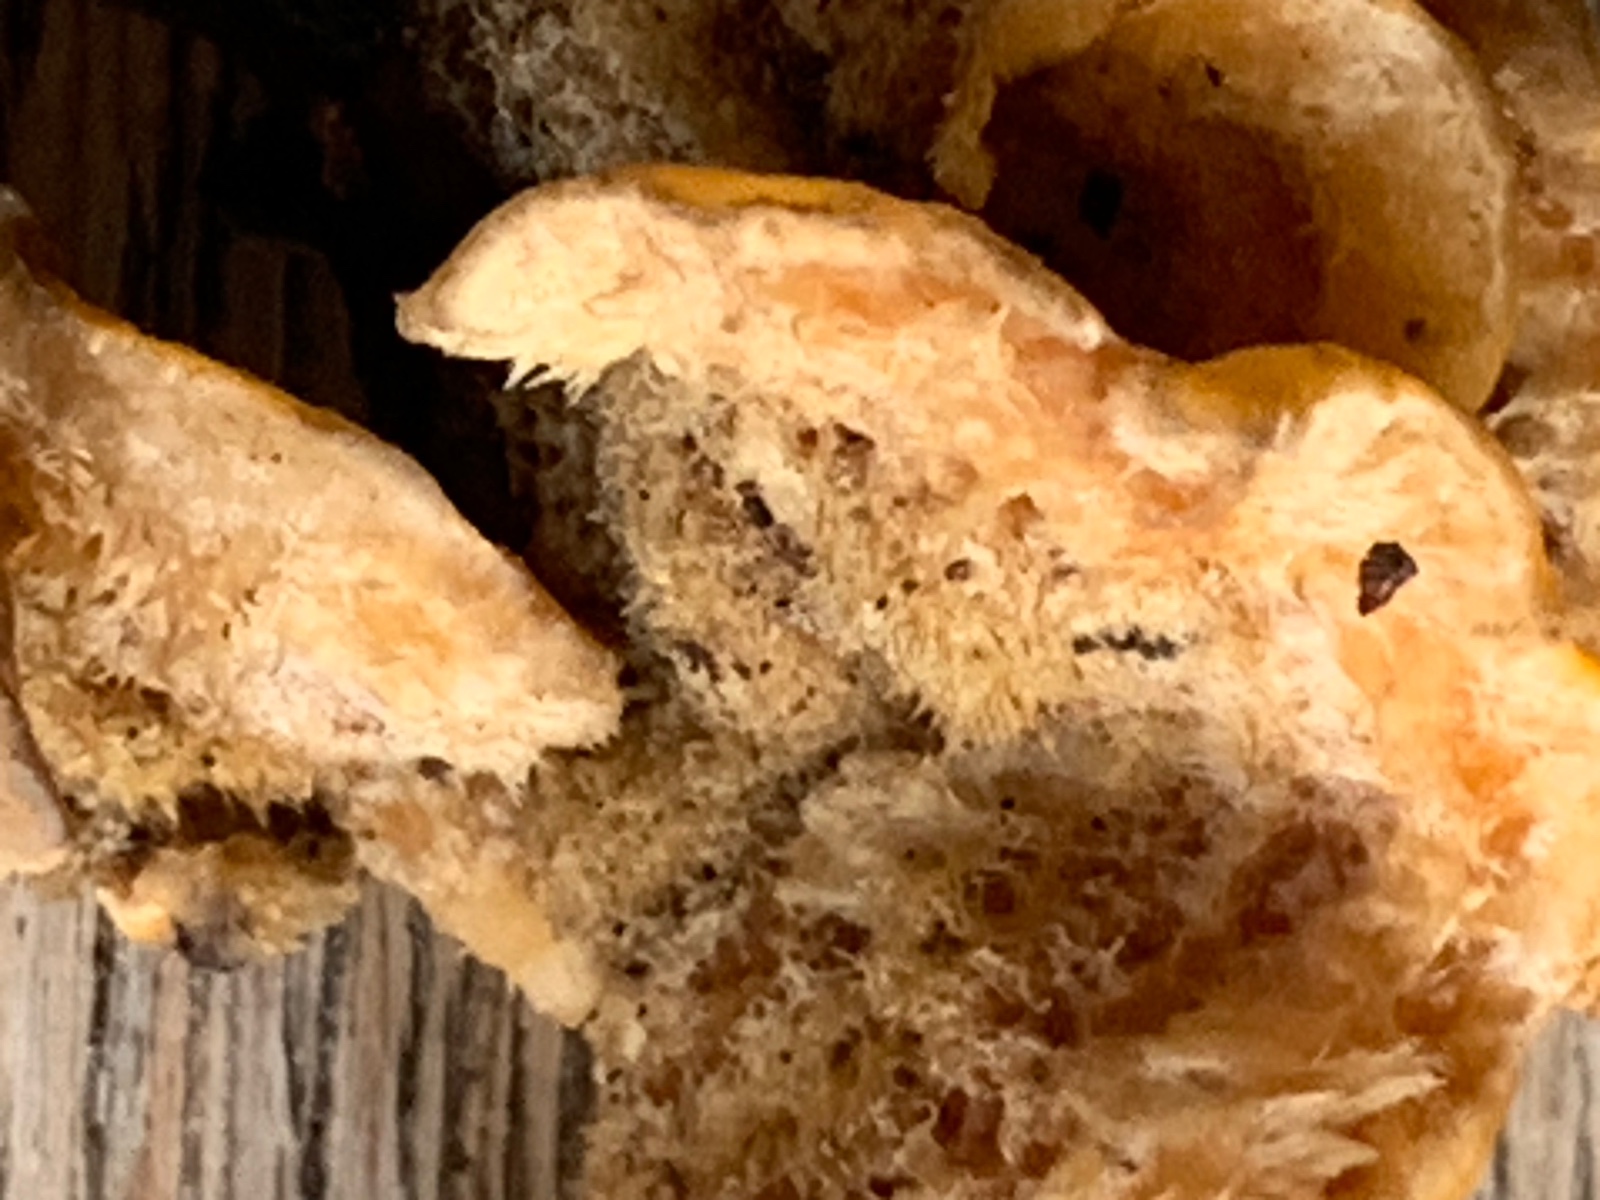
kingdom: Fungi
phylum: Basidiomycota
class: Agaricomycetes
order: Russulales
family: Stereaceae
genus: Stereum
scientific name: Stereum hirsutum
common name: håret lædersvamp
